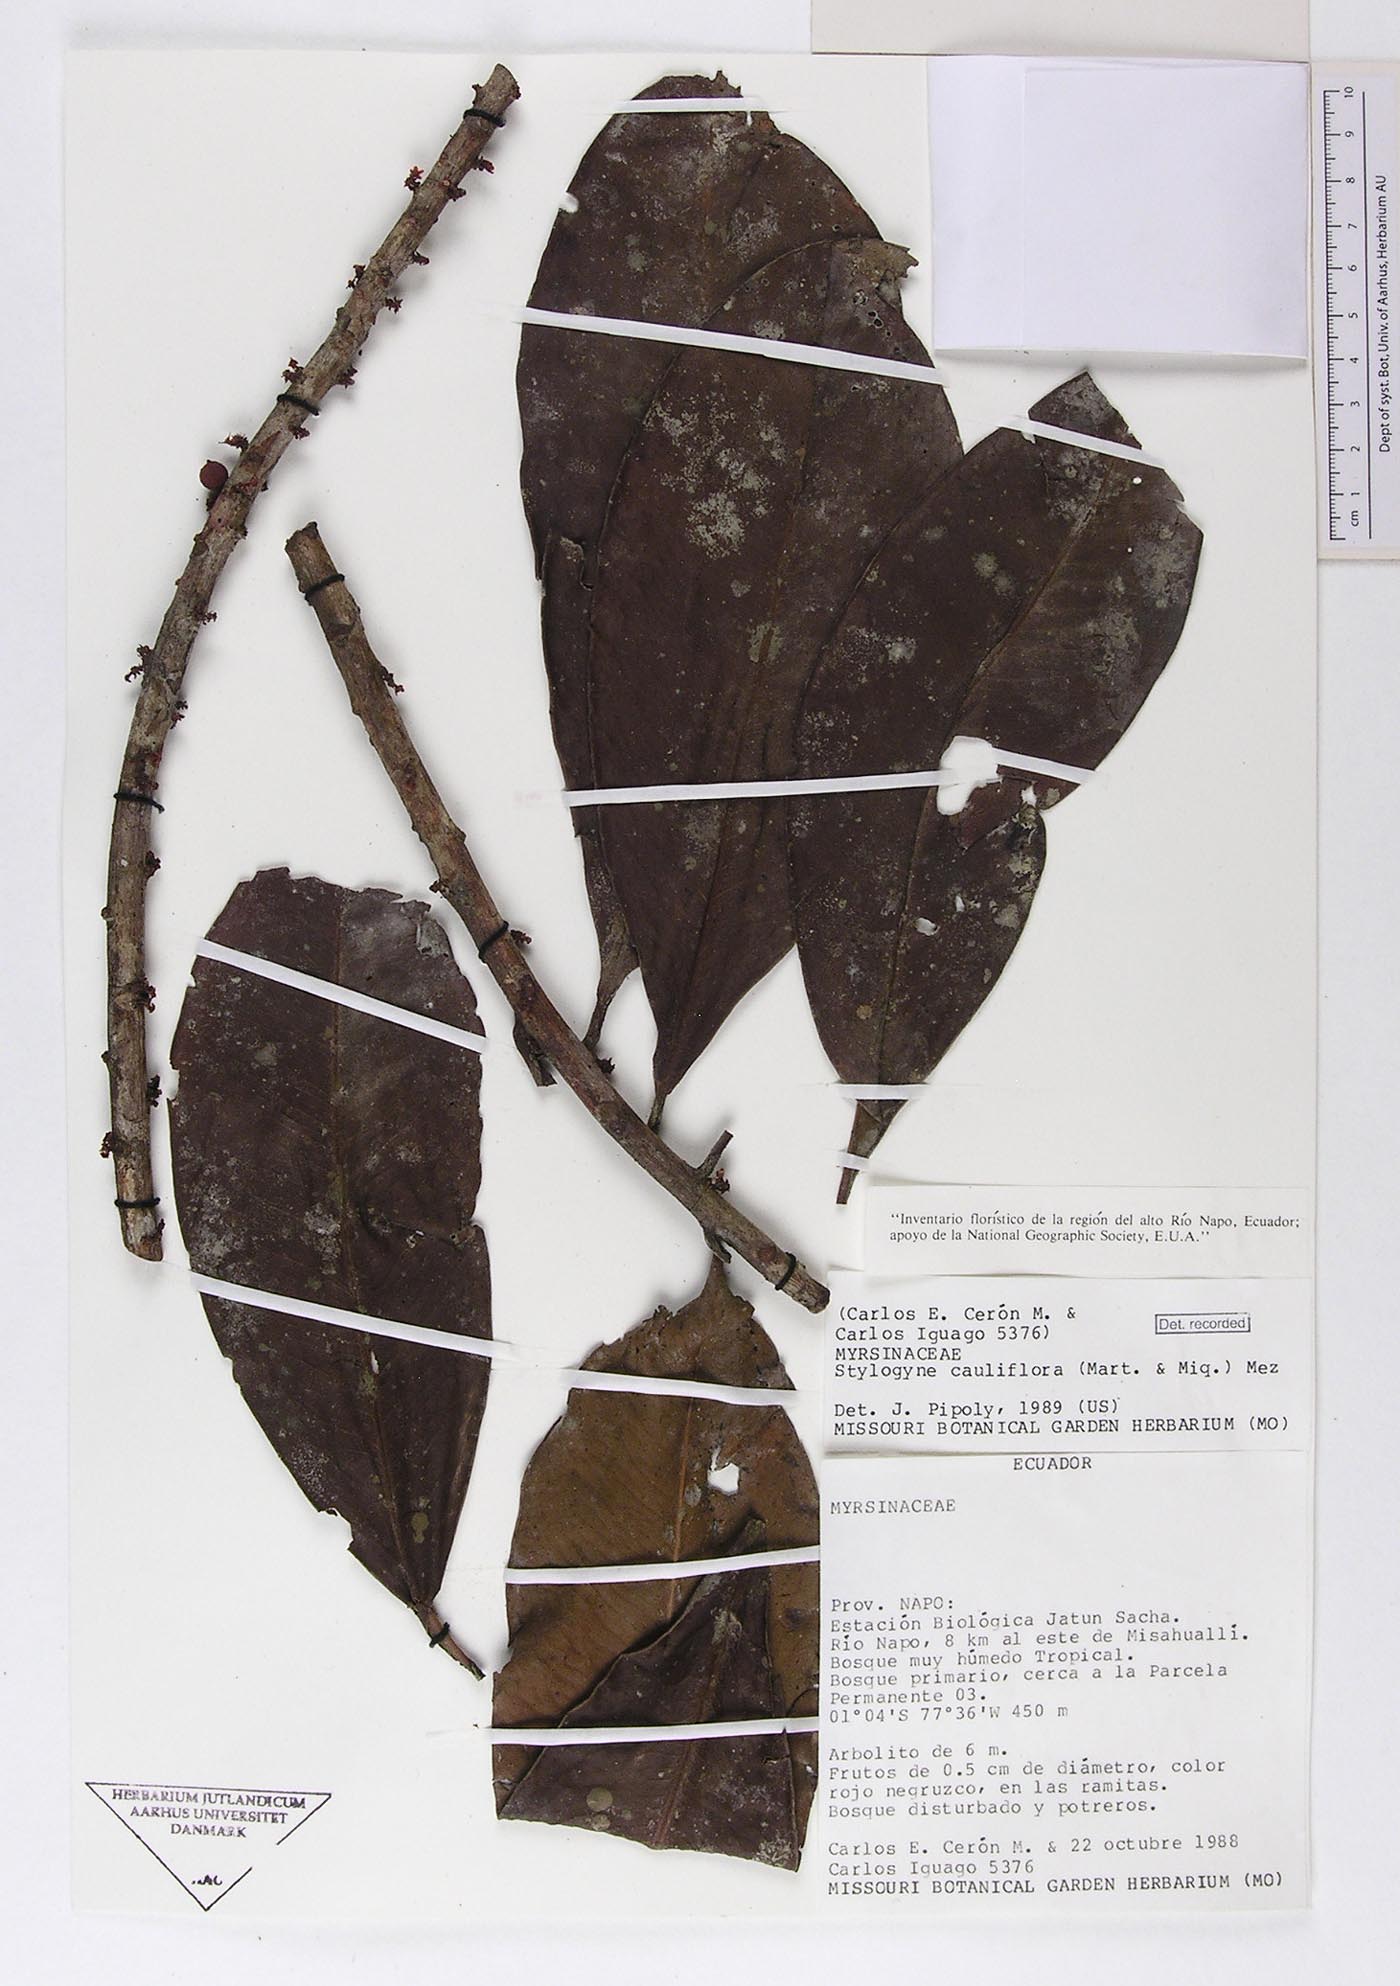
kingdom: Plantae
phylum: Tracheophyta
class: Magnoliopsida
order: Ericales
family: Primulaceae
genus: Stylogyne
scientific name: Stylogyne cauliflora
